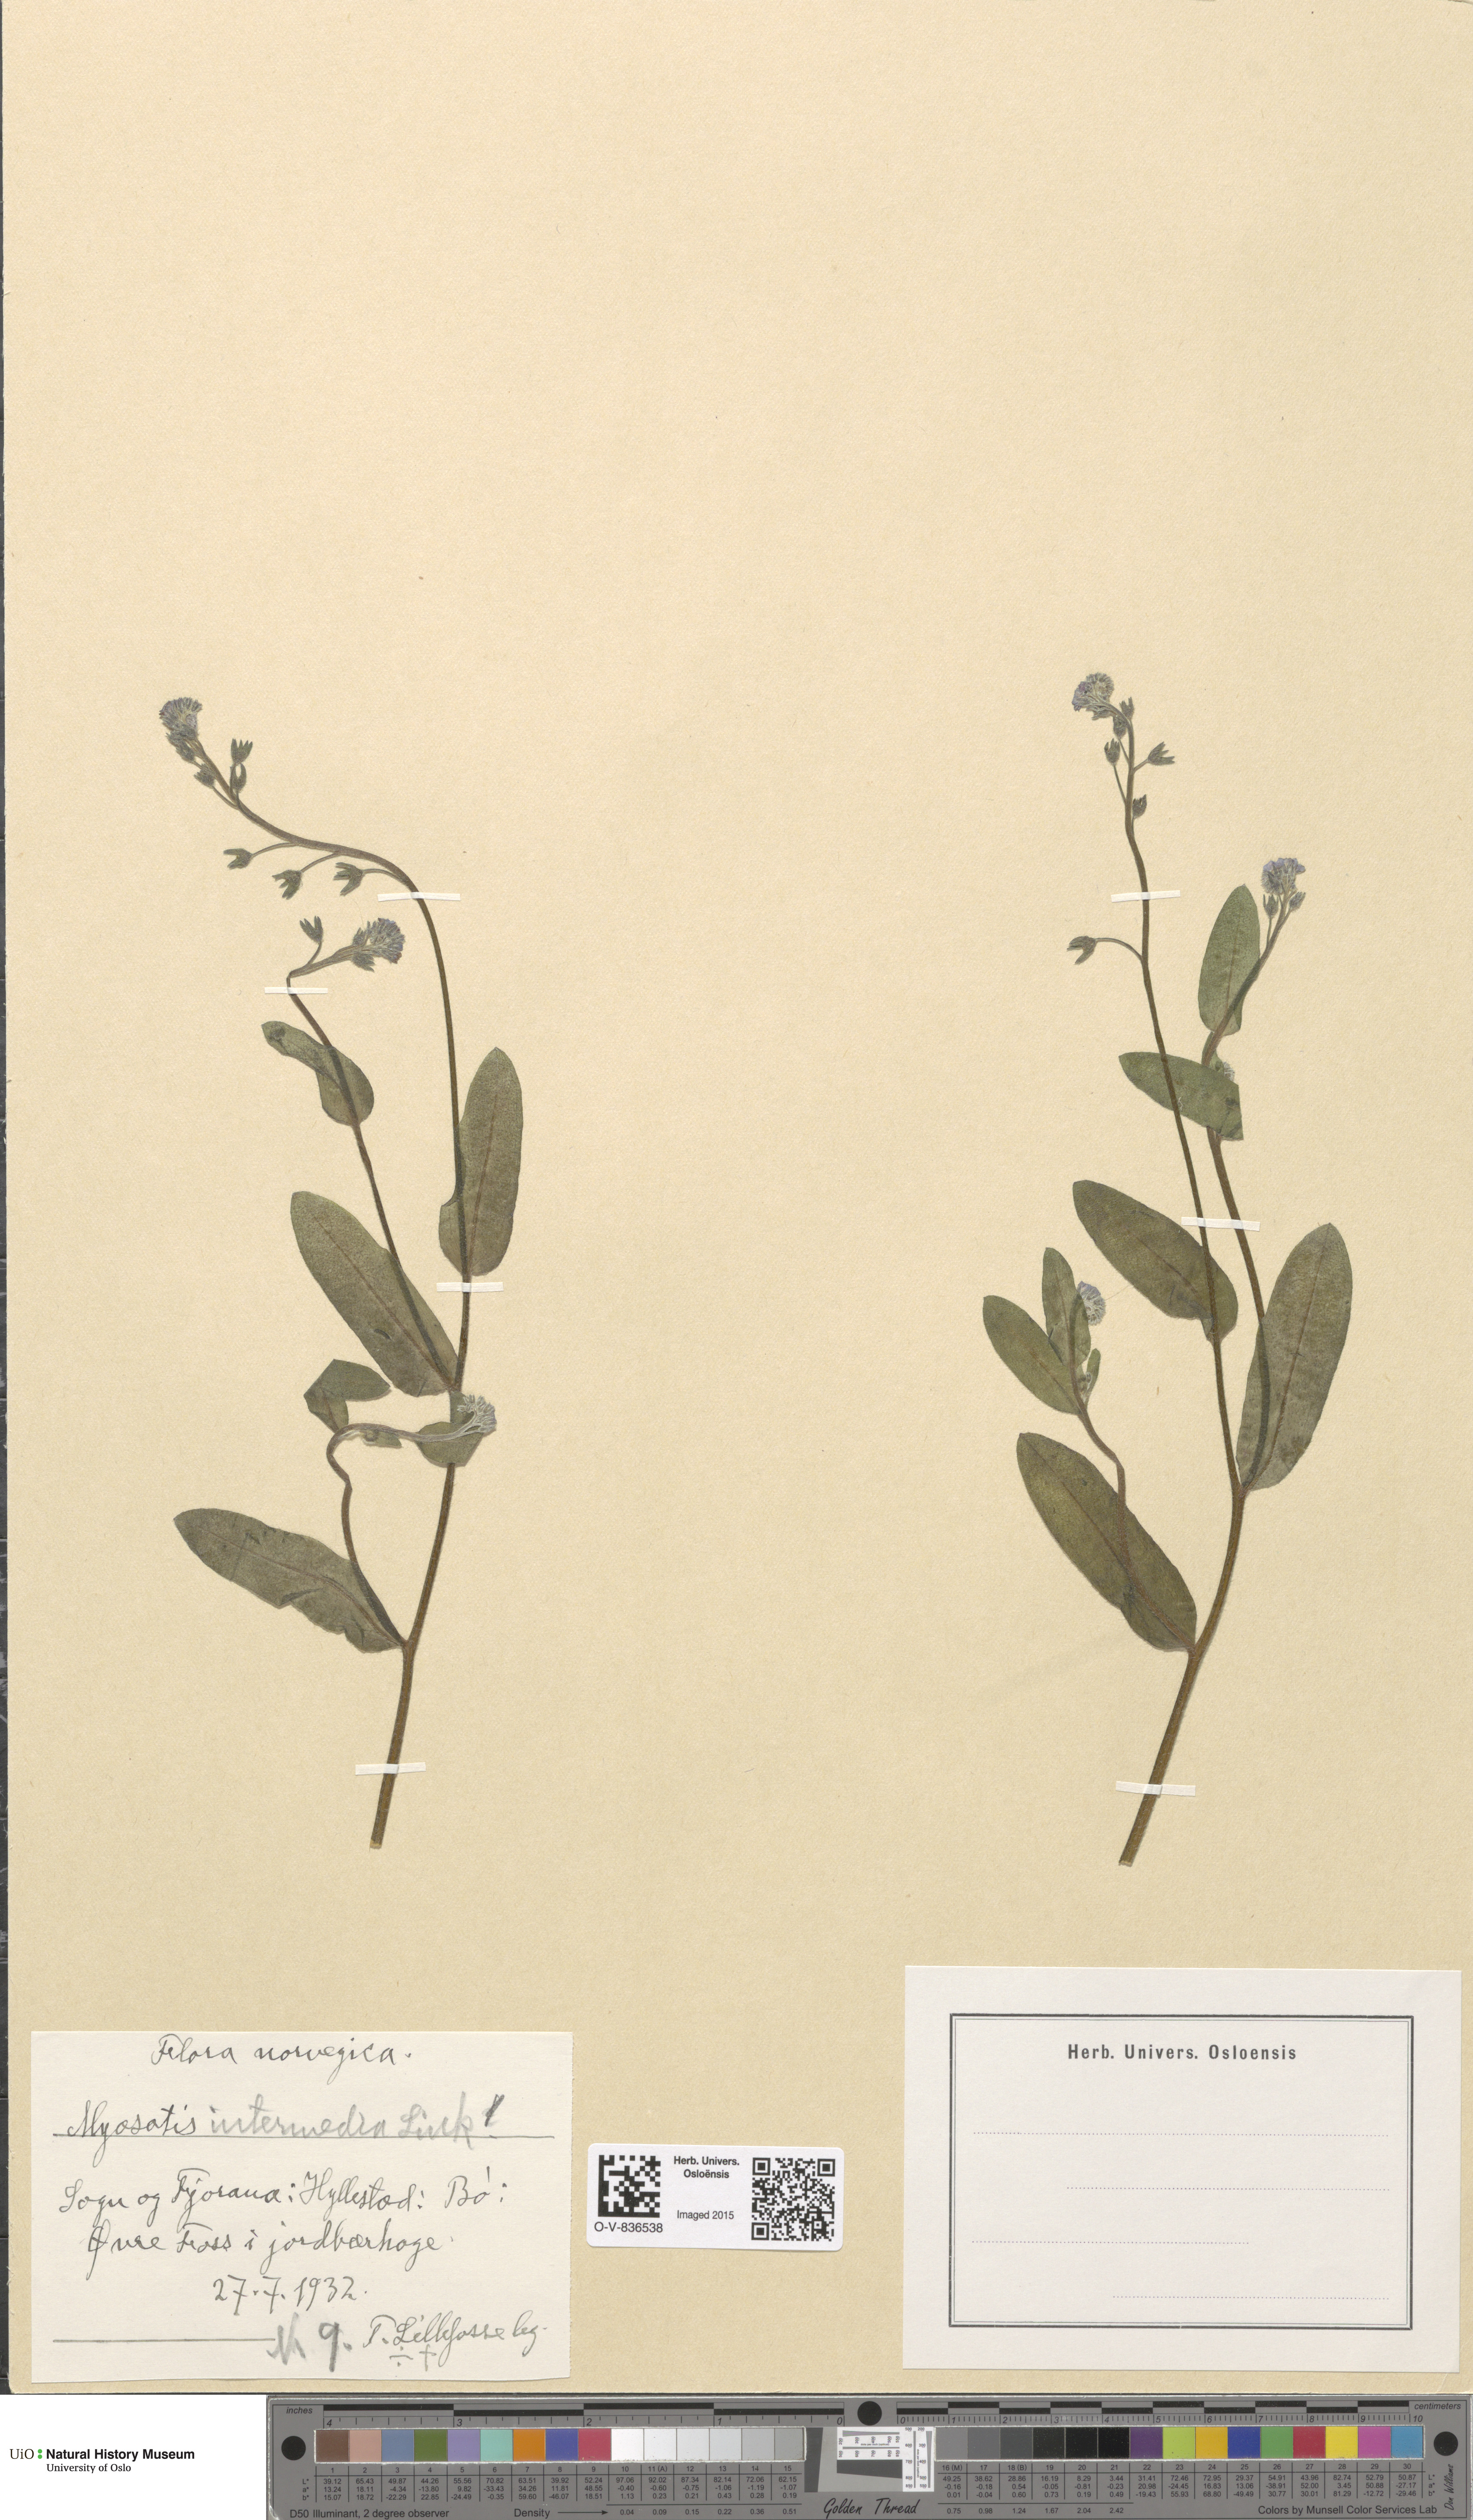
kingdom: Plantae
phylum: Tracheophyta
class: Magnoliopsida
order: Boraginales
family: Boraginaceae
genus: Myosotis
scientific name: Myosotis arvensis
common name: Field forget-me-not
